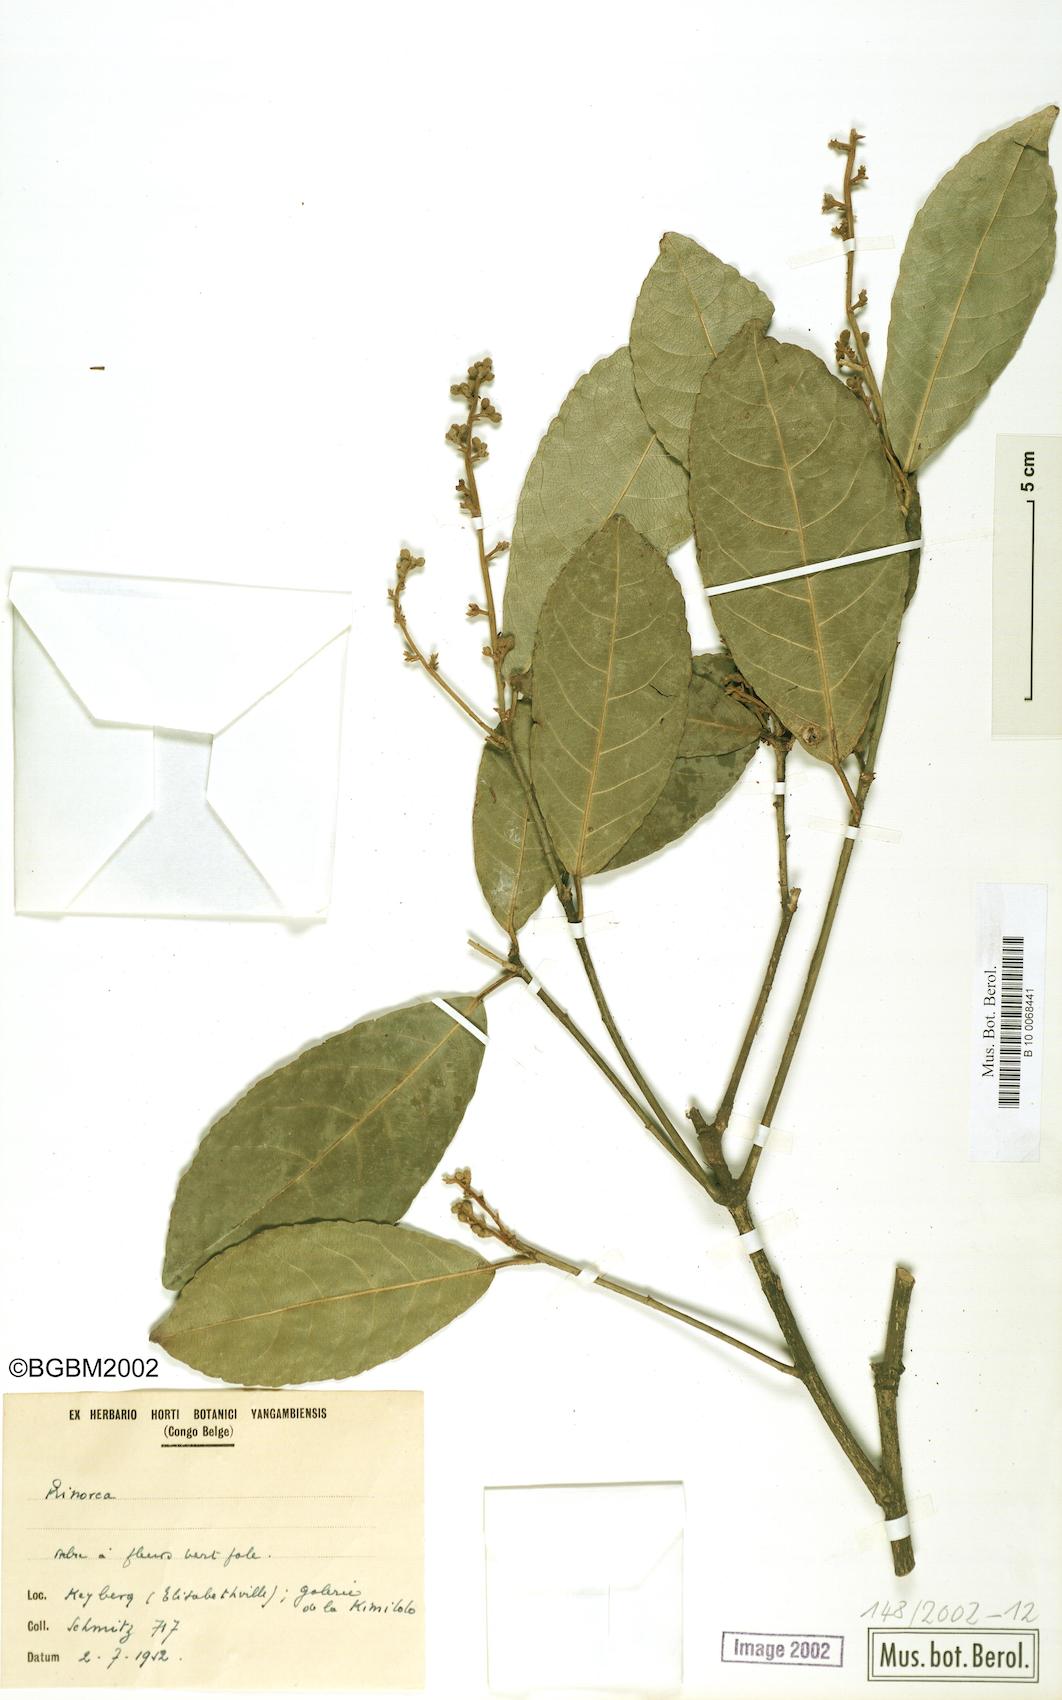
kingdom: Plantae
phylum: Tracheophyta
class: Magnoliopsida
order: Malpighiales
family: Violaceae
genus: Rinorea
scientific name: Rinorea
